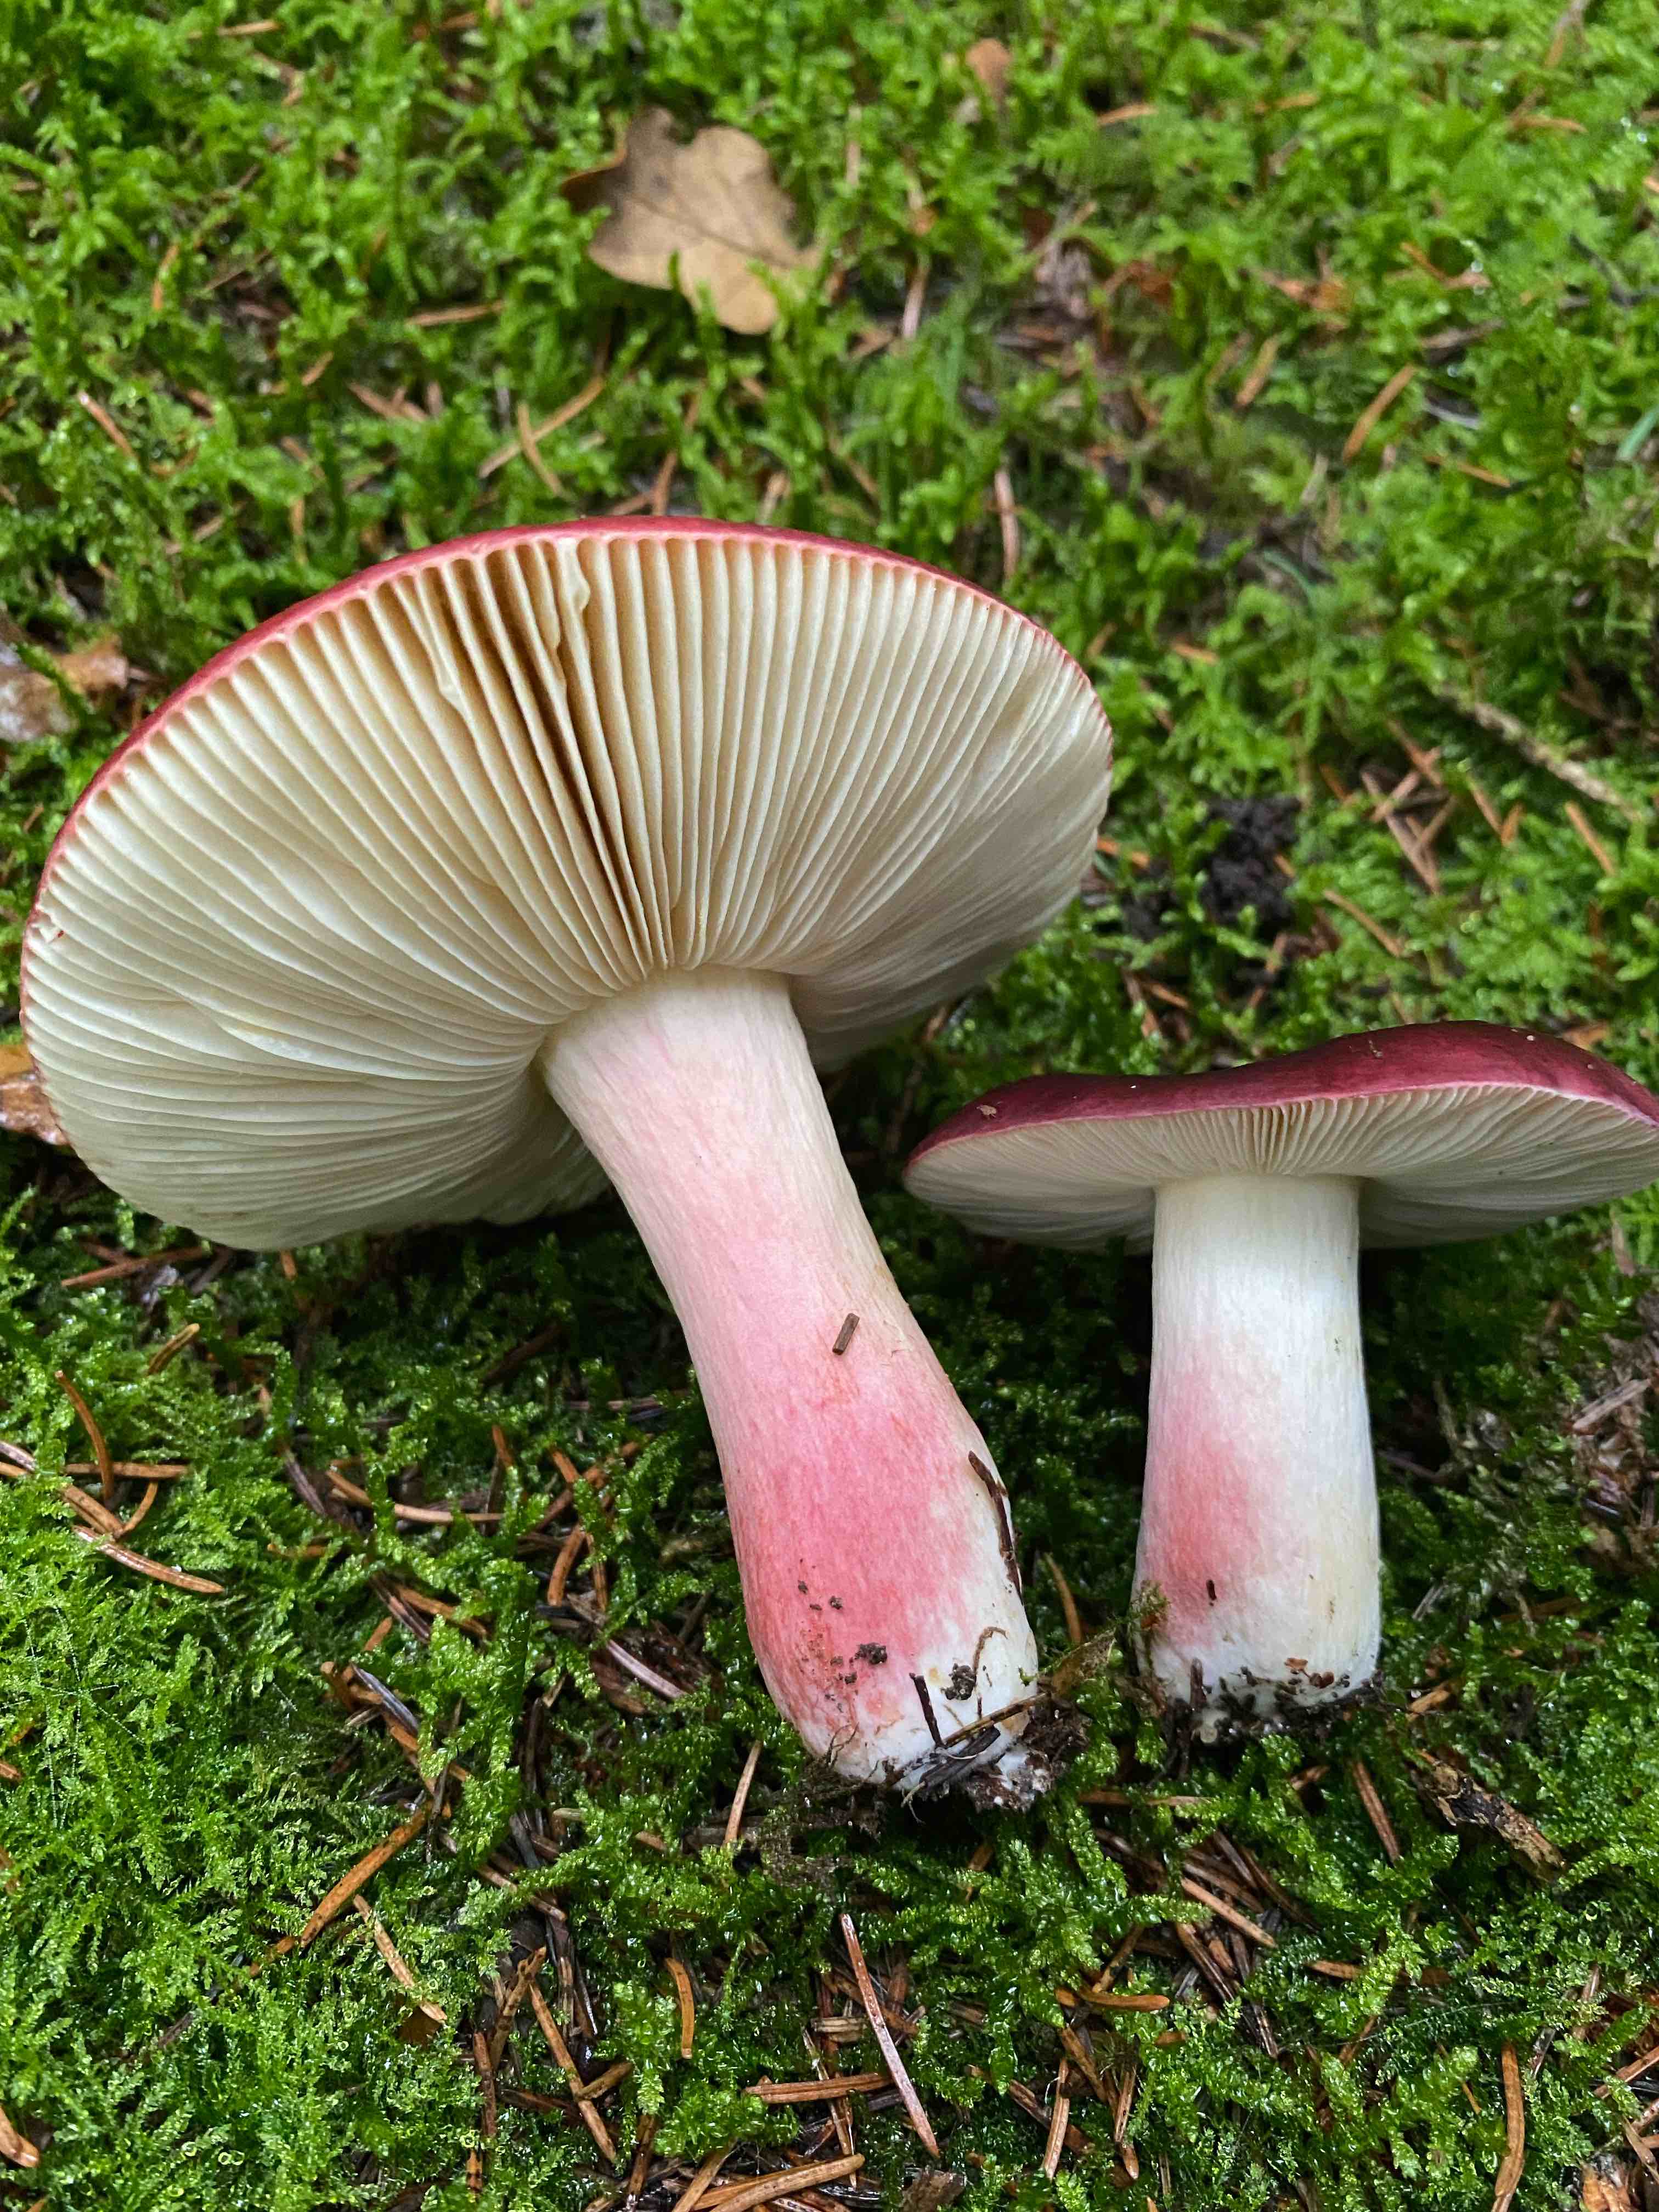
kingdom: Fungi
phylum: Basidiomycota
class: Agaricomycetes
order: Russulales
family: Russulaceae
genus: Russula
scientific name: Russula xerampelina
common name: hummer-skørhat
